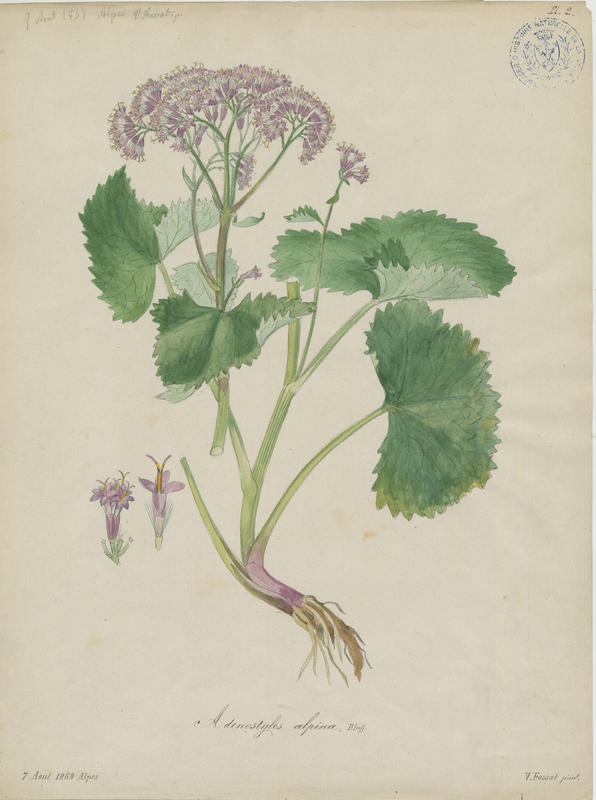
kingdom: Plantae
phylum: Tracheophyta
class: Magnoliopsida
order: Asterales
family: Asteraceae
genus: Adenostyles
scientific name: Adenostyles alpina
